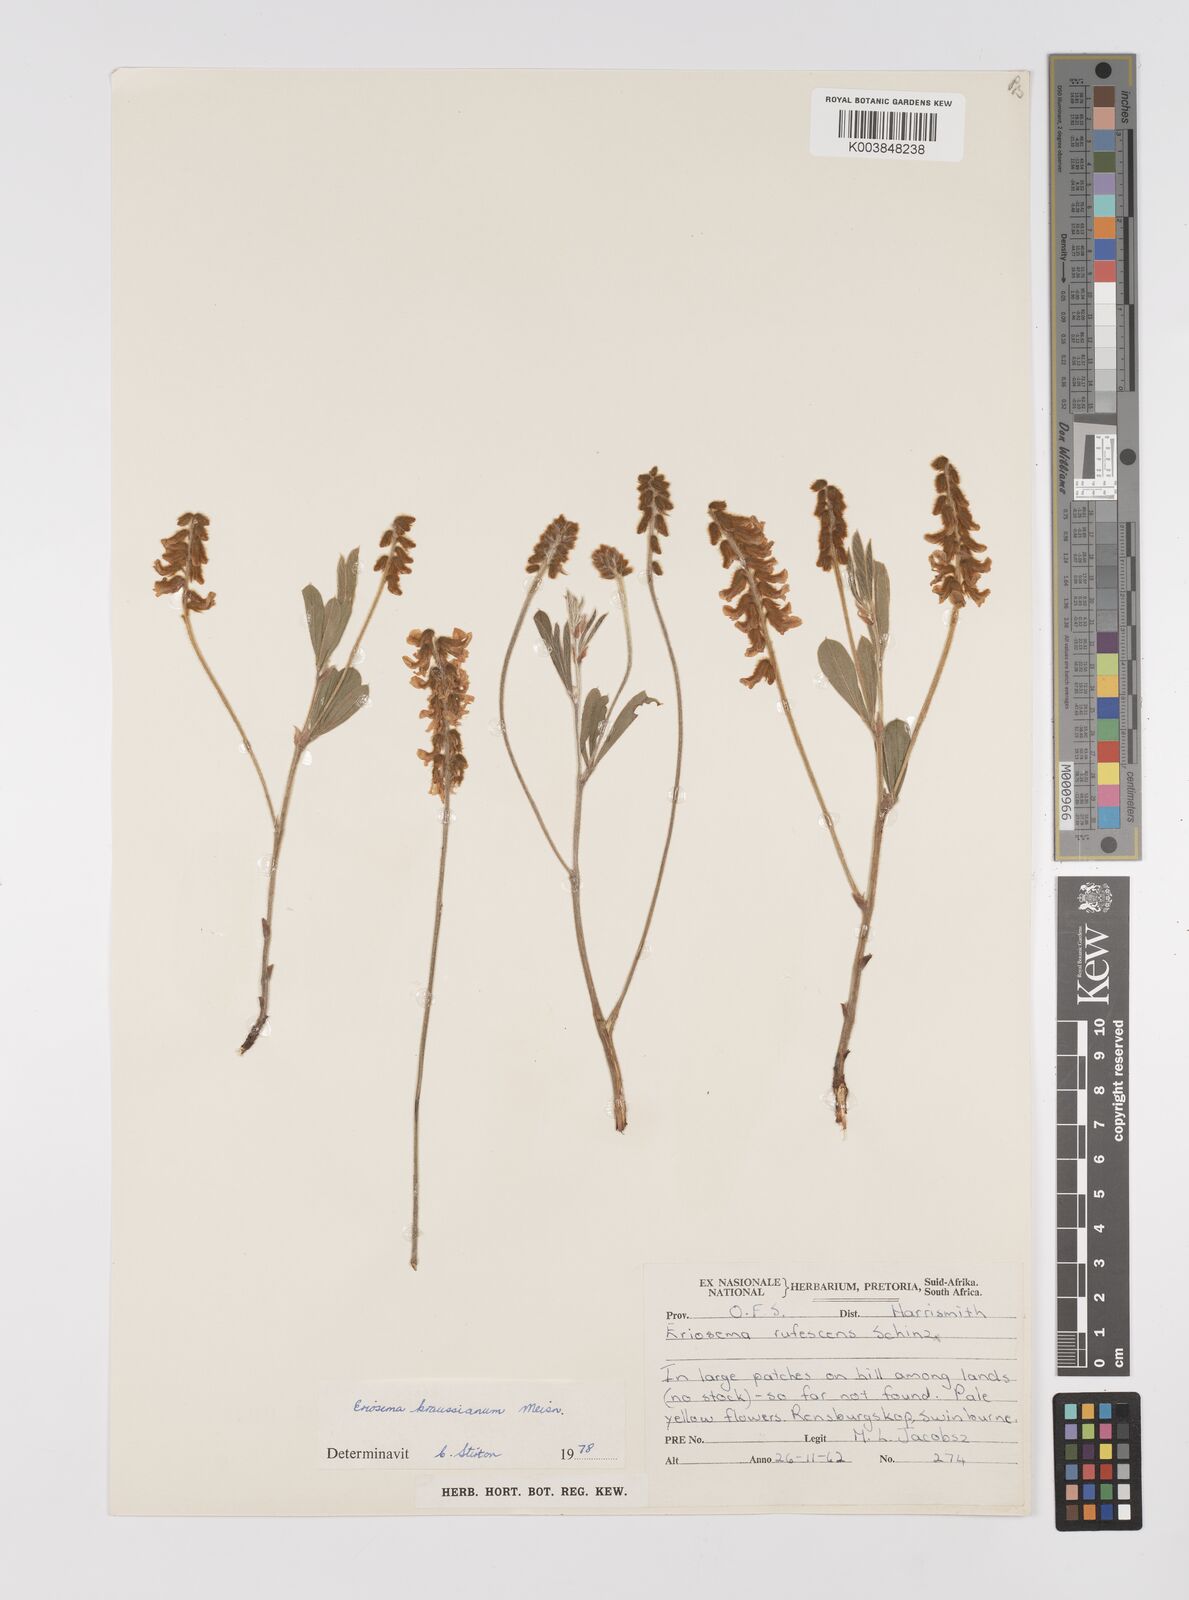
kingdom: Plantae
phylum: Tracheophyta
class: Magnoliopsida
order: Fabales
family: Fabaceae
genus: Eriosema
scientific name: Eriosema kraussianum
